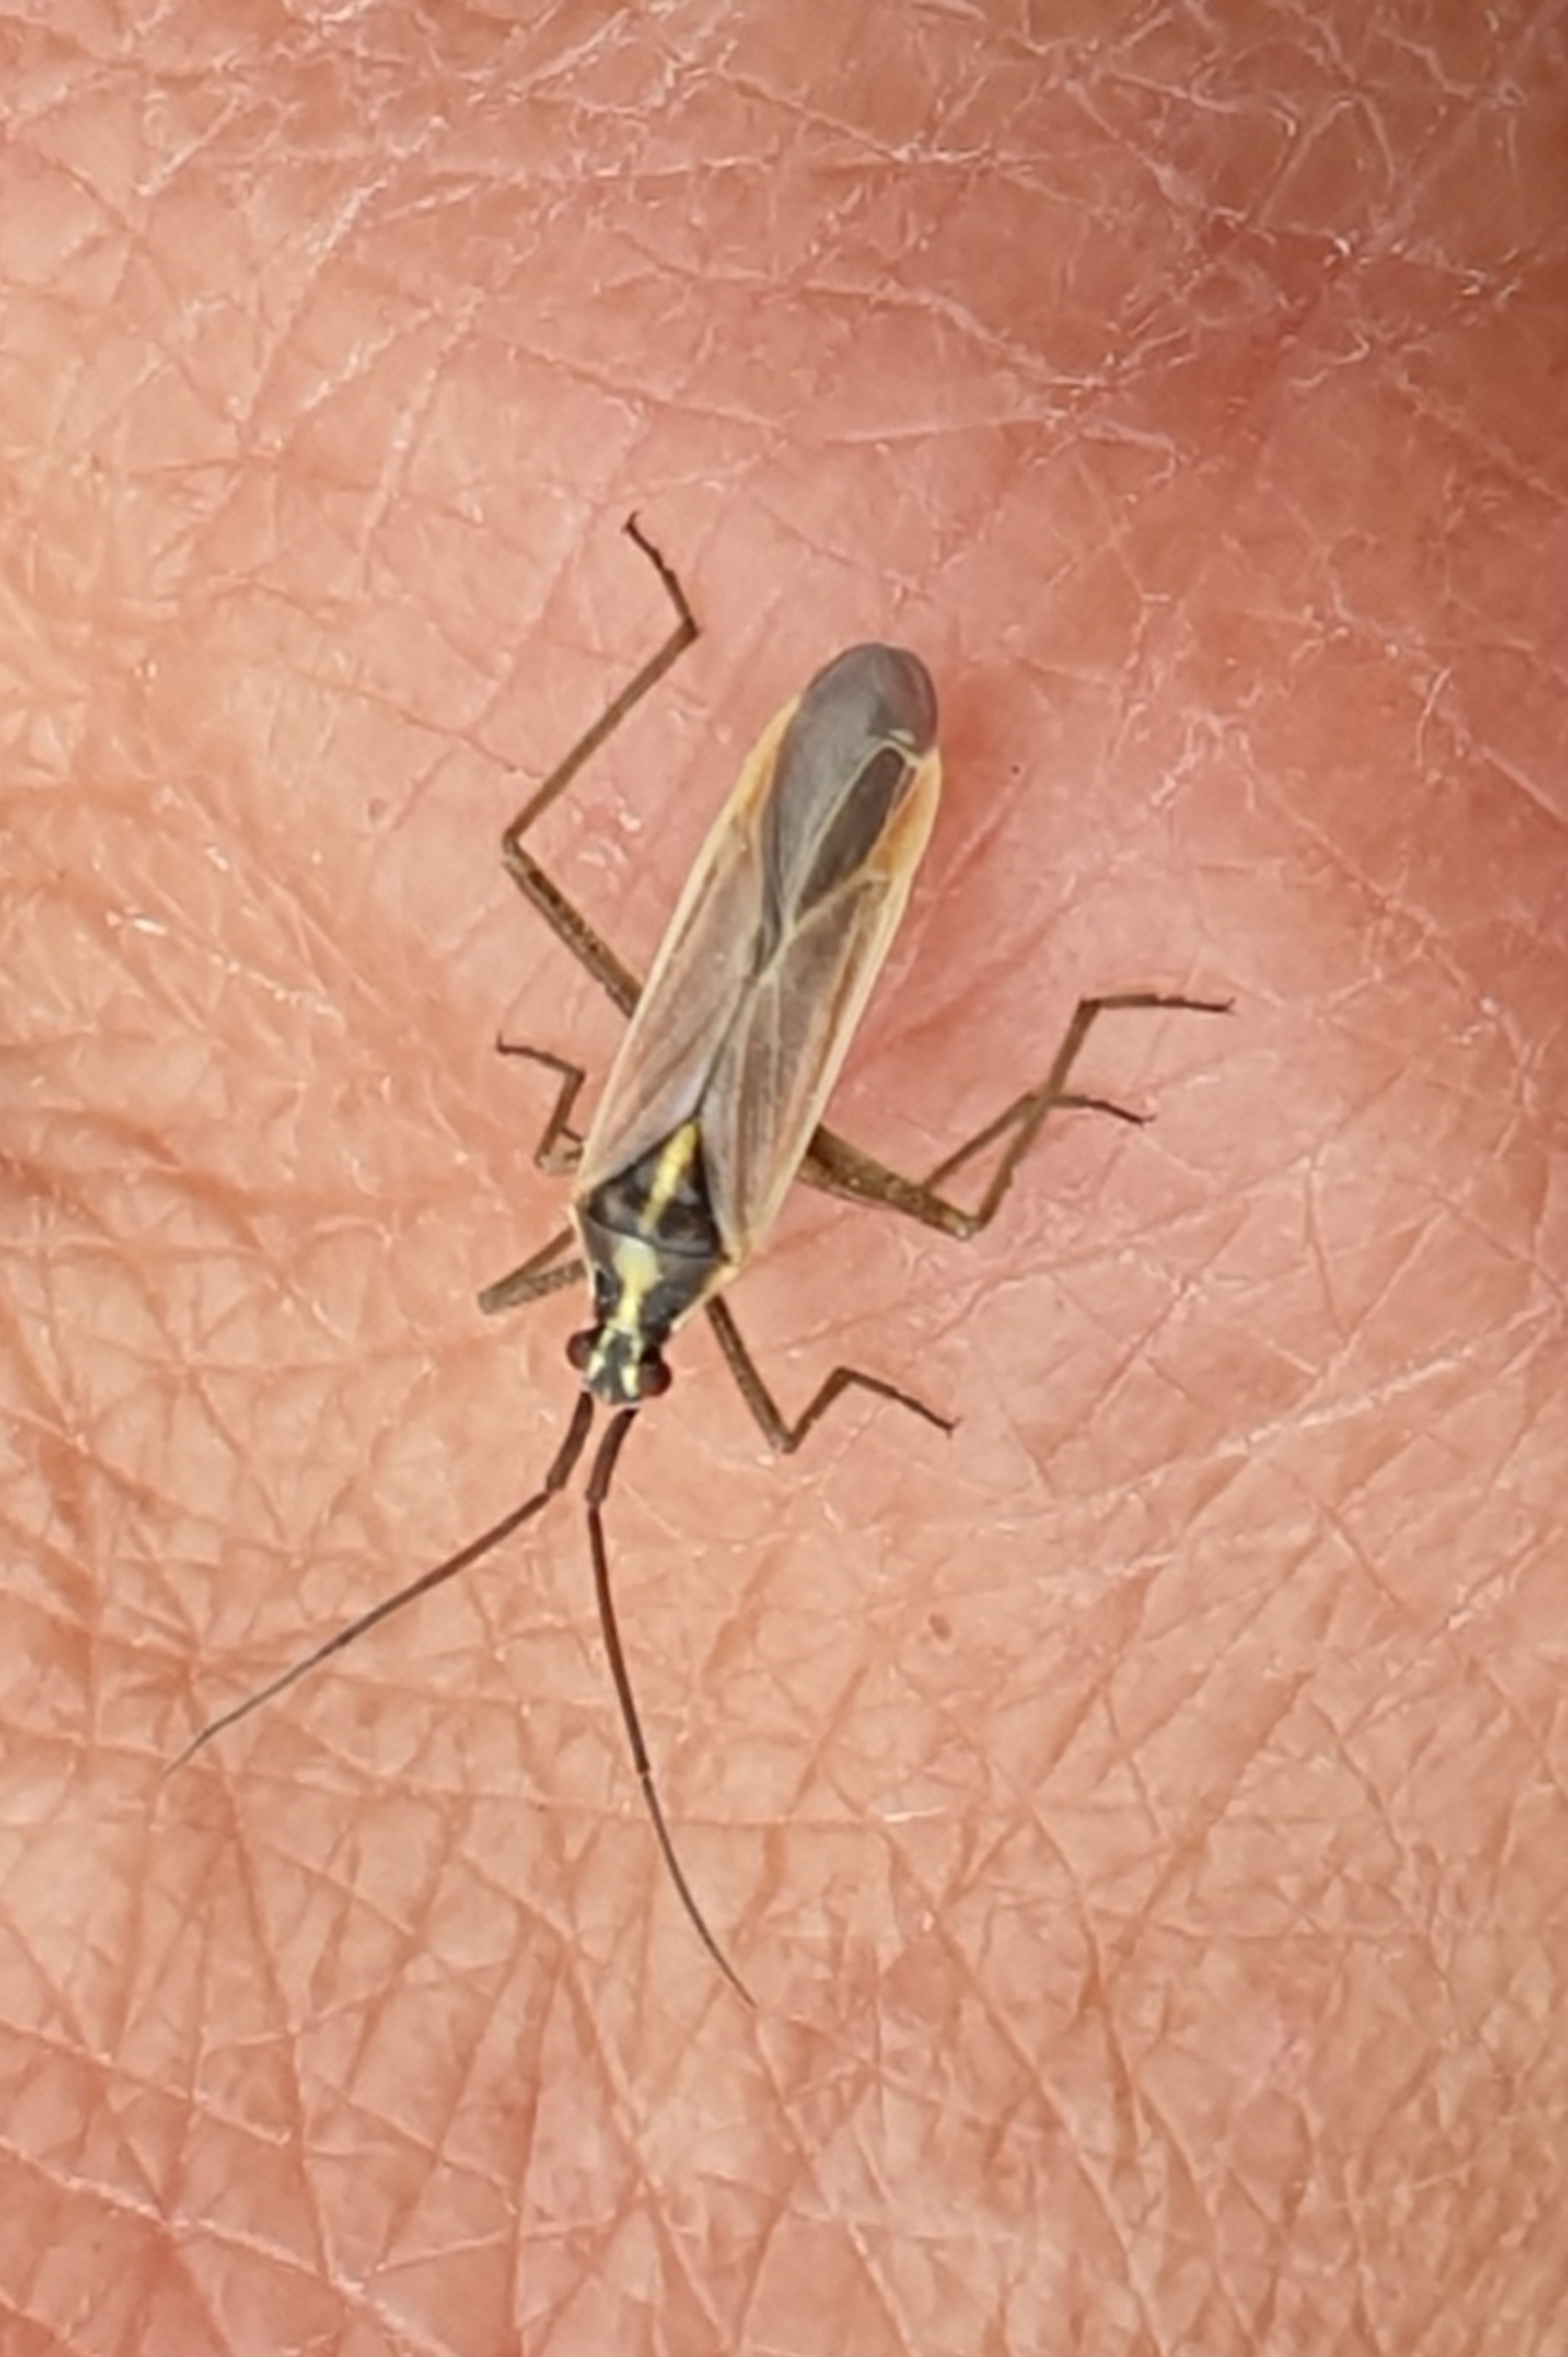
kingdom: Animalia
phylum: Arthropoda
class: Insecta
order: Hemiptera
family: Miridae
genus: Leptopterna
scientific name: Leptopterna ferrugata
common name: Rødbrun græstæge
